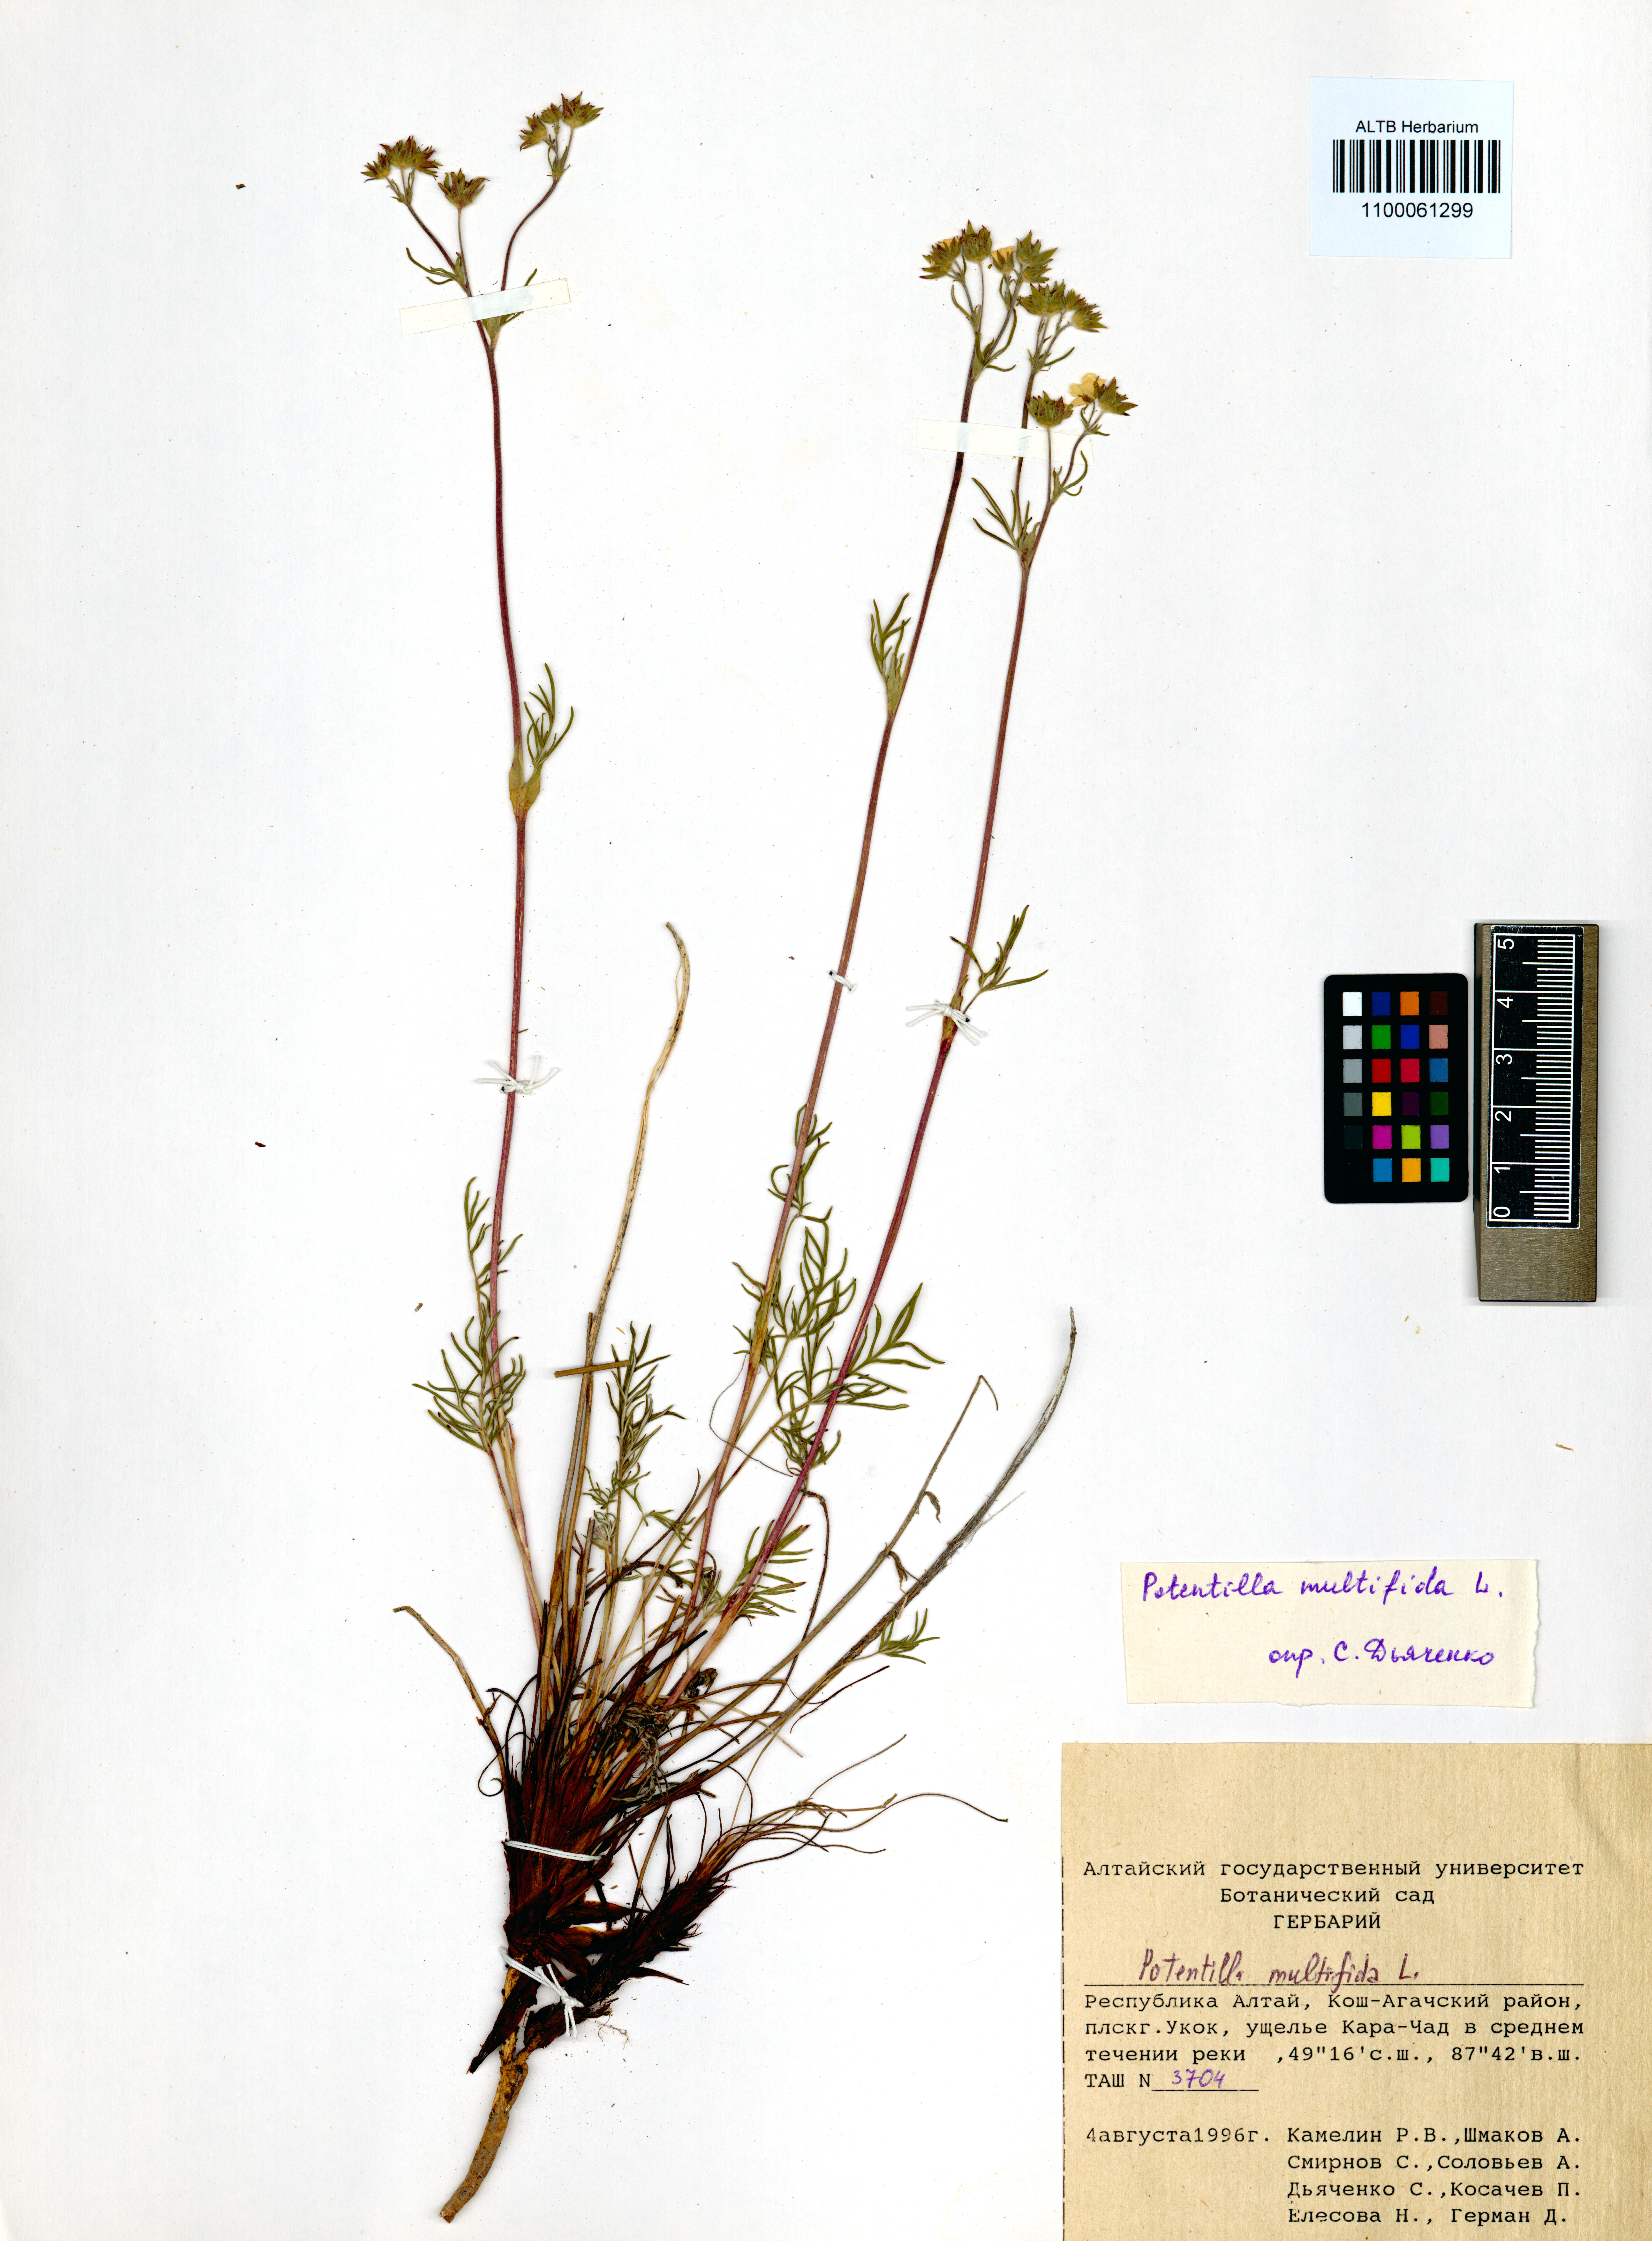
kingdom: Plantae
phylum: Tracheophyta
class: Magnoliopsida
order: Rosales
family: Rosaceae
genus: Potentilla
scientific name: Potentilla multifida
